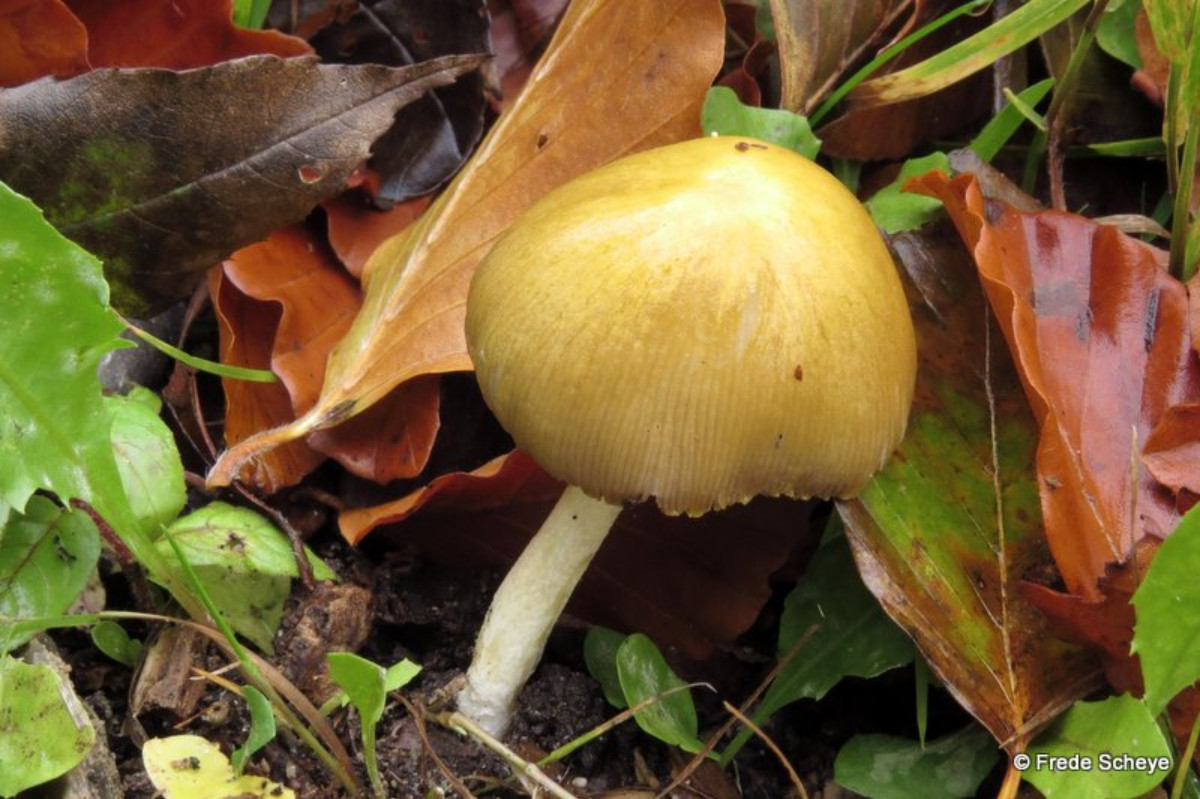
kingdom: Fungi
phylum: Basidiomycota
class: Agaricomycetes
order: Agaricales
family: Bolbitiaceae
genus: Bolbitius
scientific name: Bolbitius titubans
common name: almindelig gulhat
